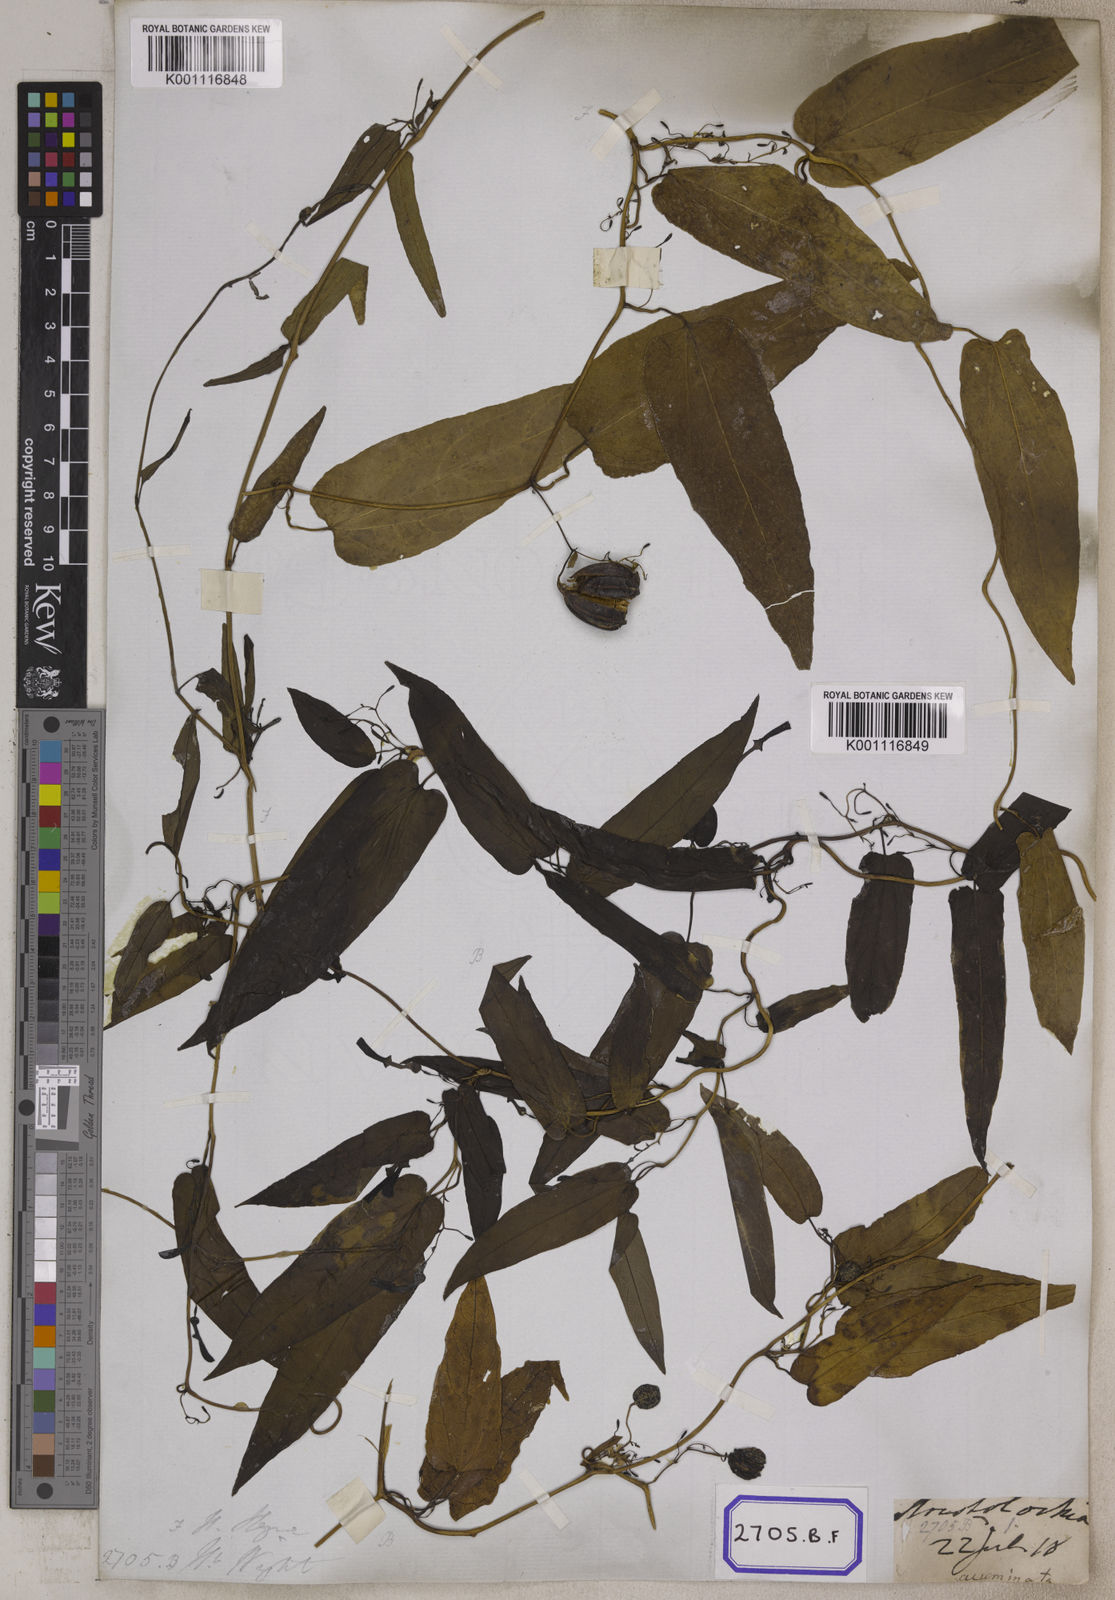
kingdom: Plantae
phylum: Tracheophyta
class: Magnoliopsida
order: Piperales
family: Aristolochiaceae
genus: Aristolochia
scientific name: Aristolochia acuminata
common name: Indian birthwort
